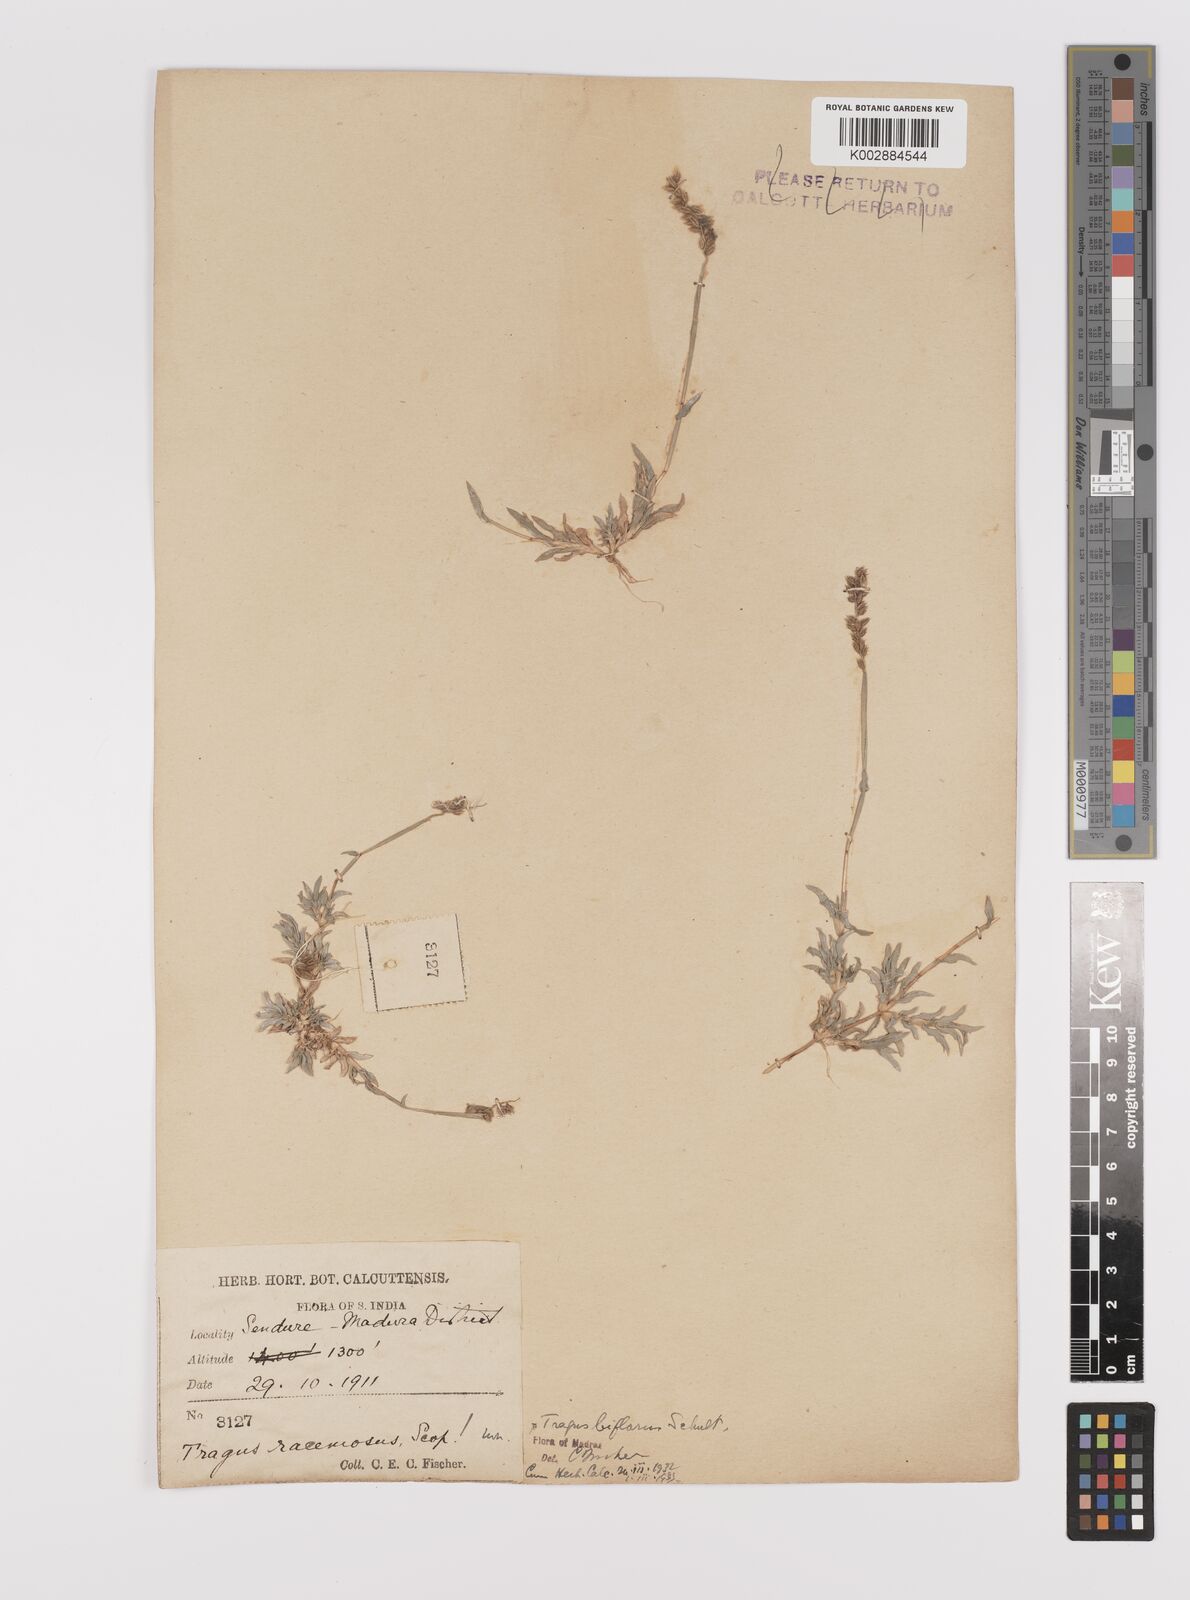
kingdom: Plantae
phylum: Tracheophyta
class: Liliopsida
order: Poales
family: Poaceae
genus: Tragus
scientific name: Tragus mongolorum
